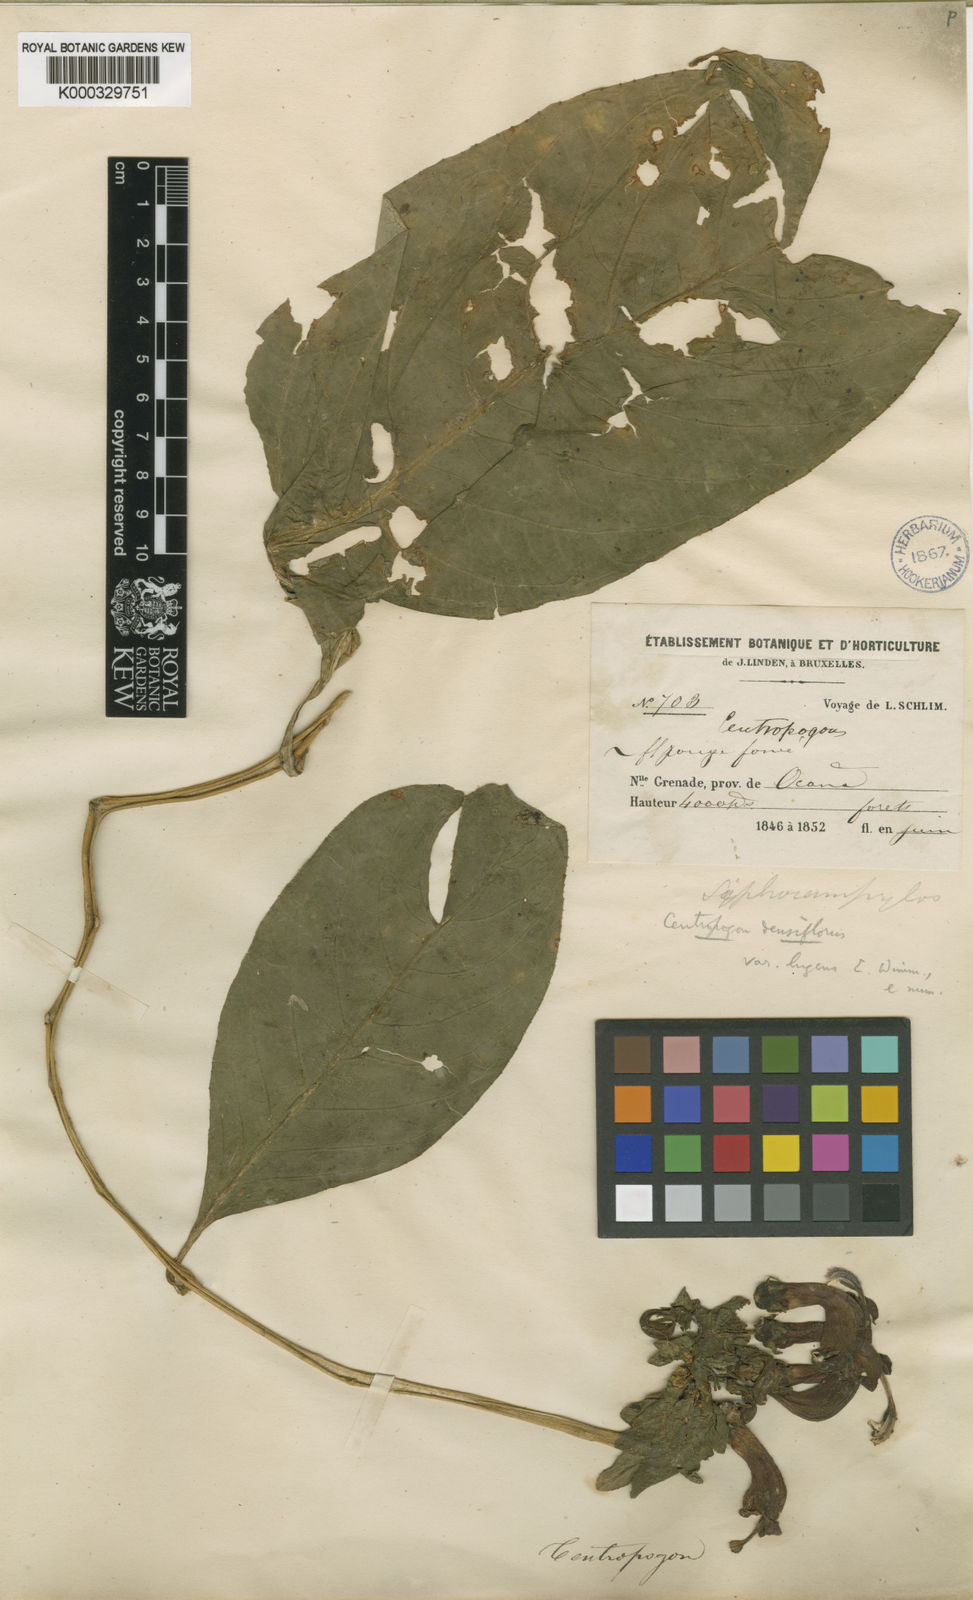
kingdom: Plantae
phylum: Tracheophyta
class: Magnoliopsida
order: Asterales
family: Campanulaceae
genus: Centropogon
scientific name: Centropogon granulosus
